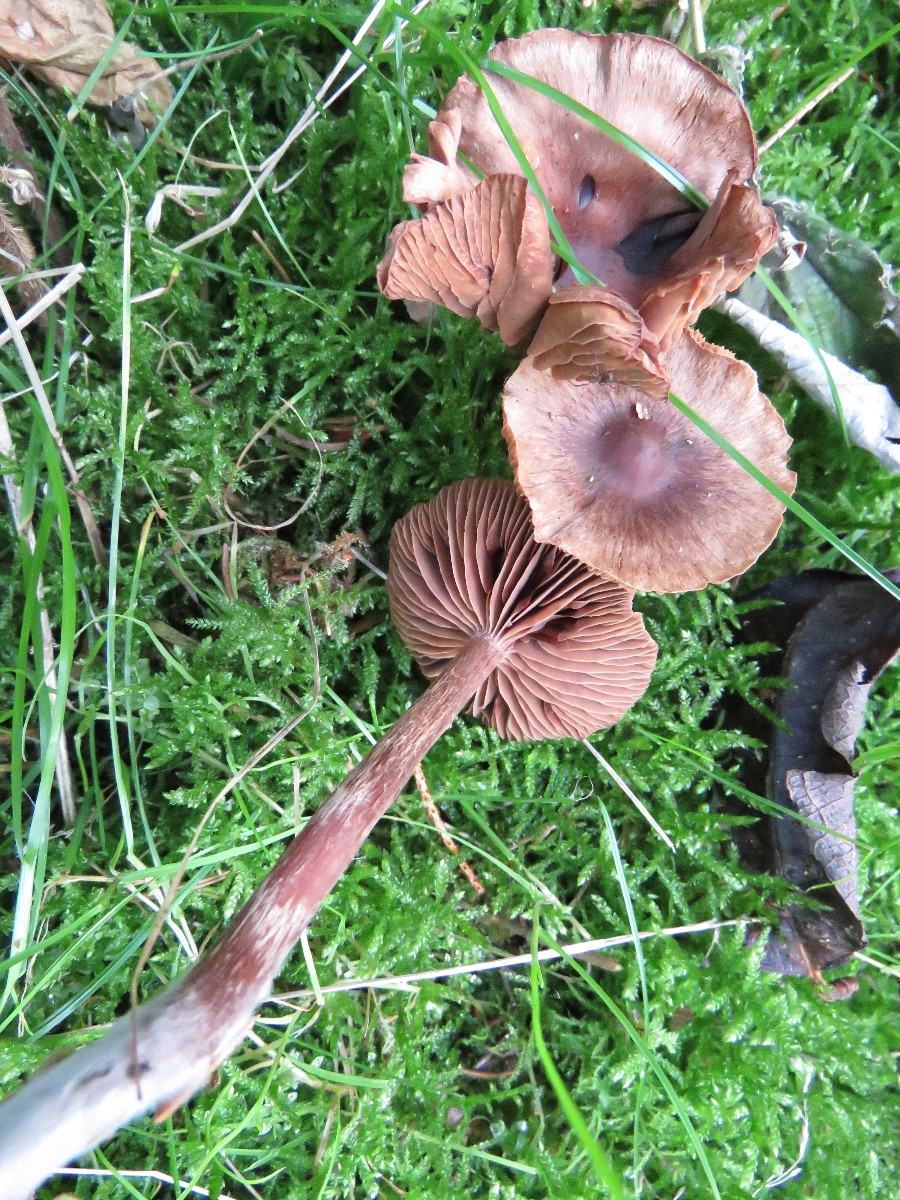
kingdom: Fungi
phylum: Basidiomycota
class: Agaricomycetes
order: Agaricales
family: Cortinariaceae
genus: Cortinarius
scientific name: Cortinarius
